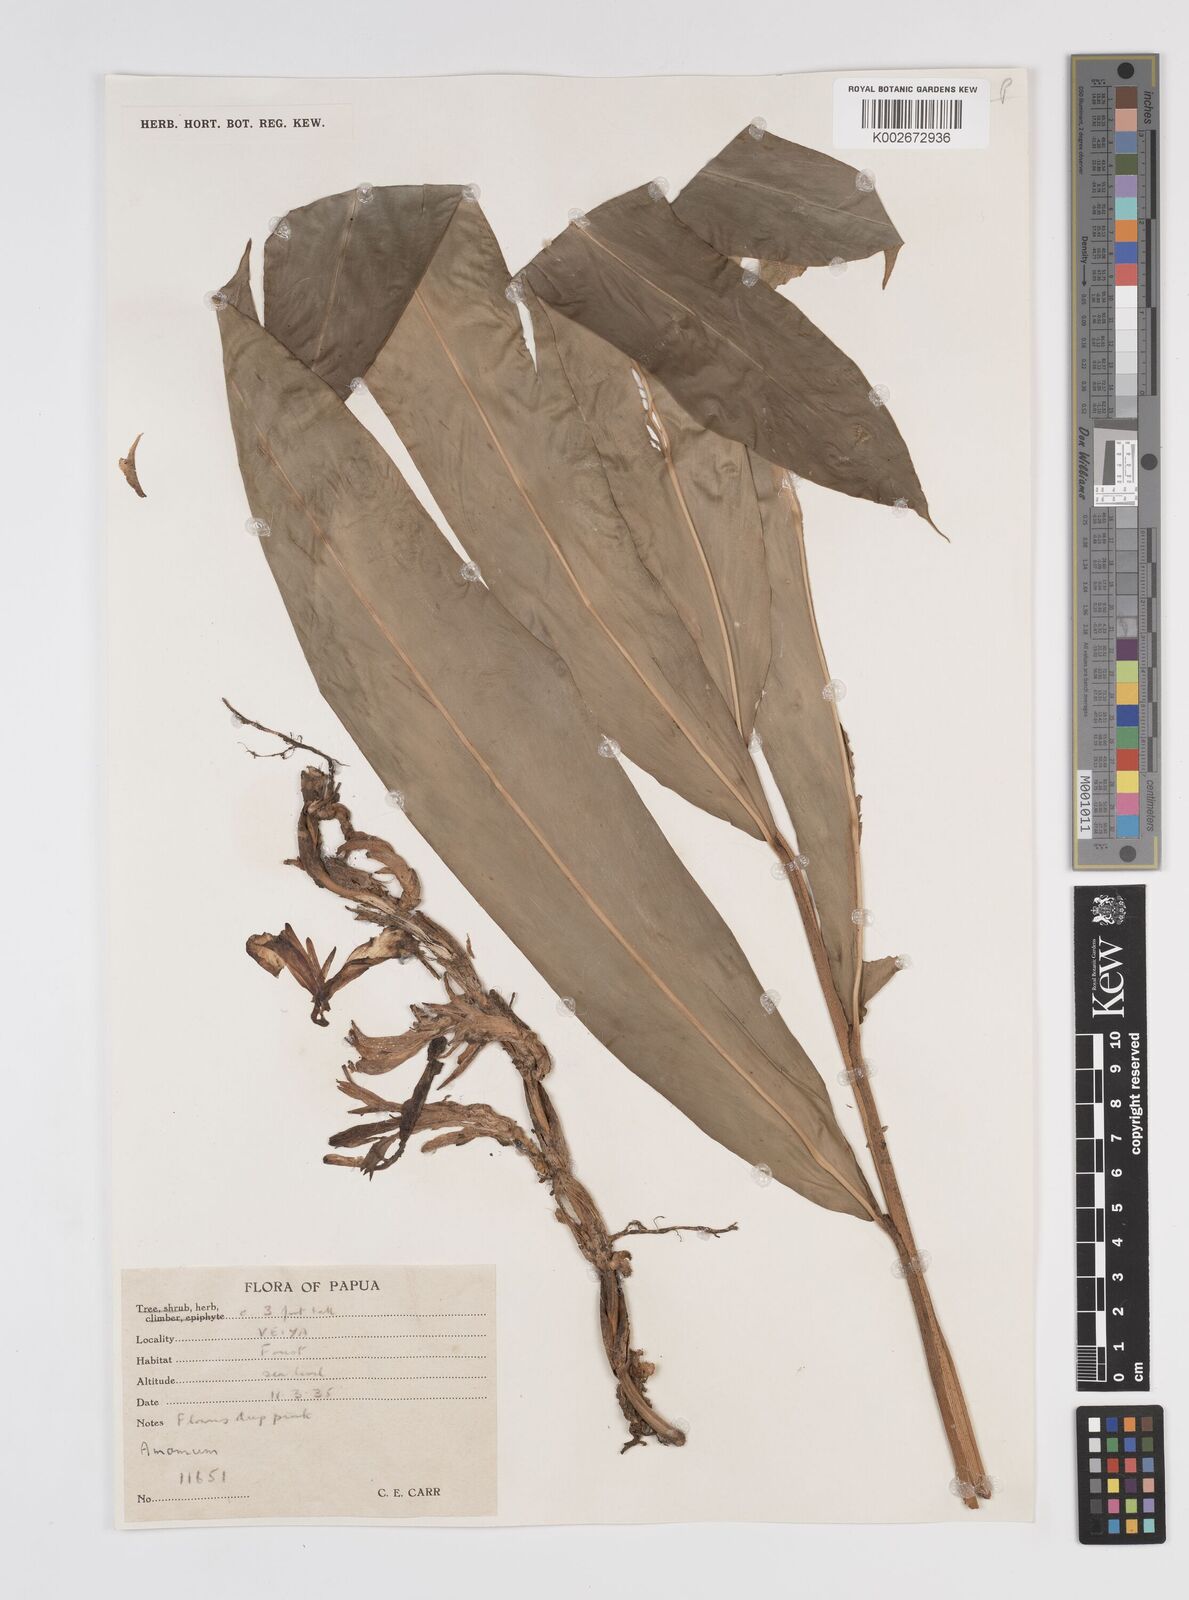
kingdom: Plantae
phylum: Tracheophyta
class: Liliopsida
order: Zingiberales
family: Zingiberaceae
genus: Etlingera
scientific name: Etlingera
